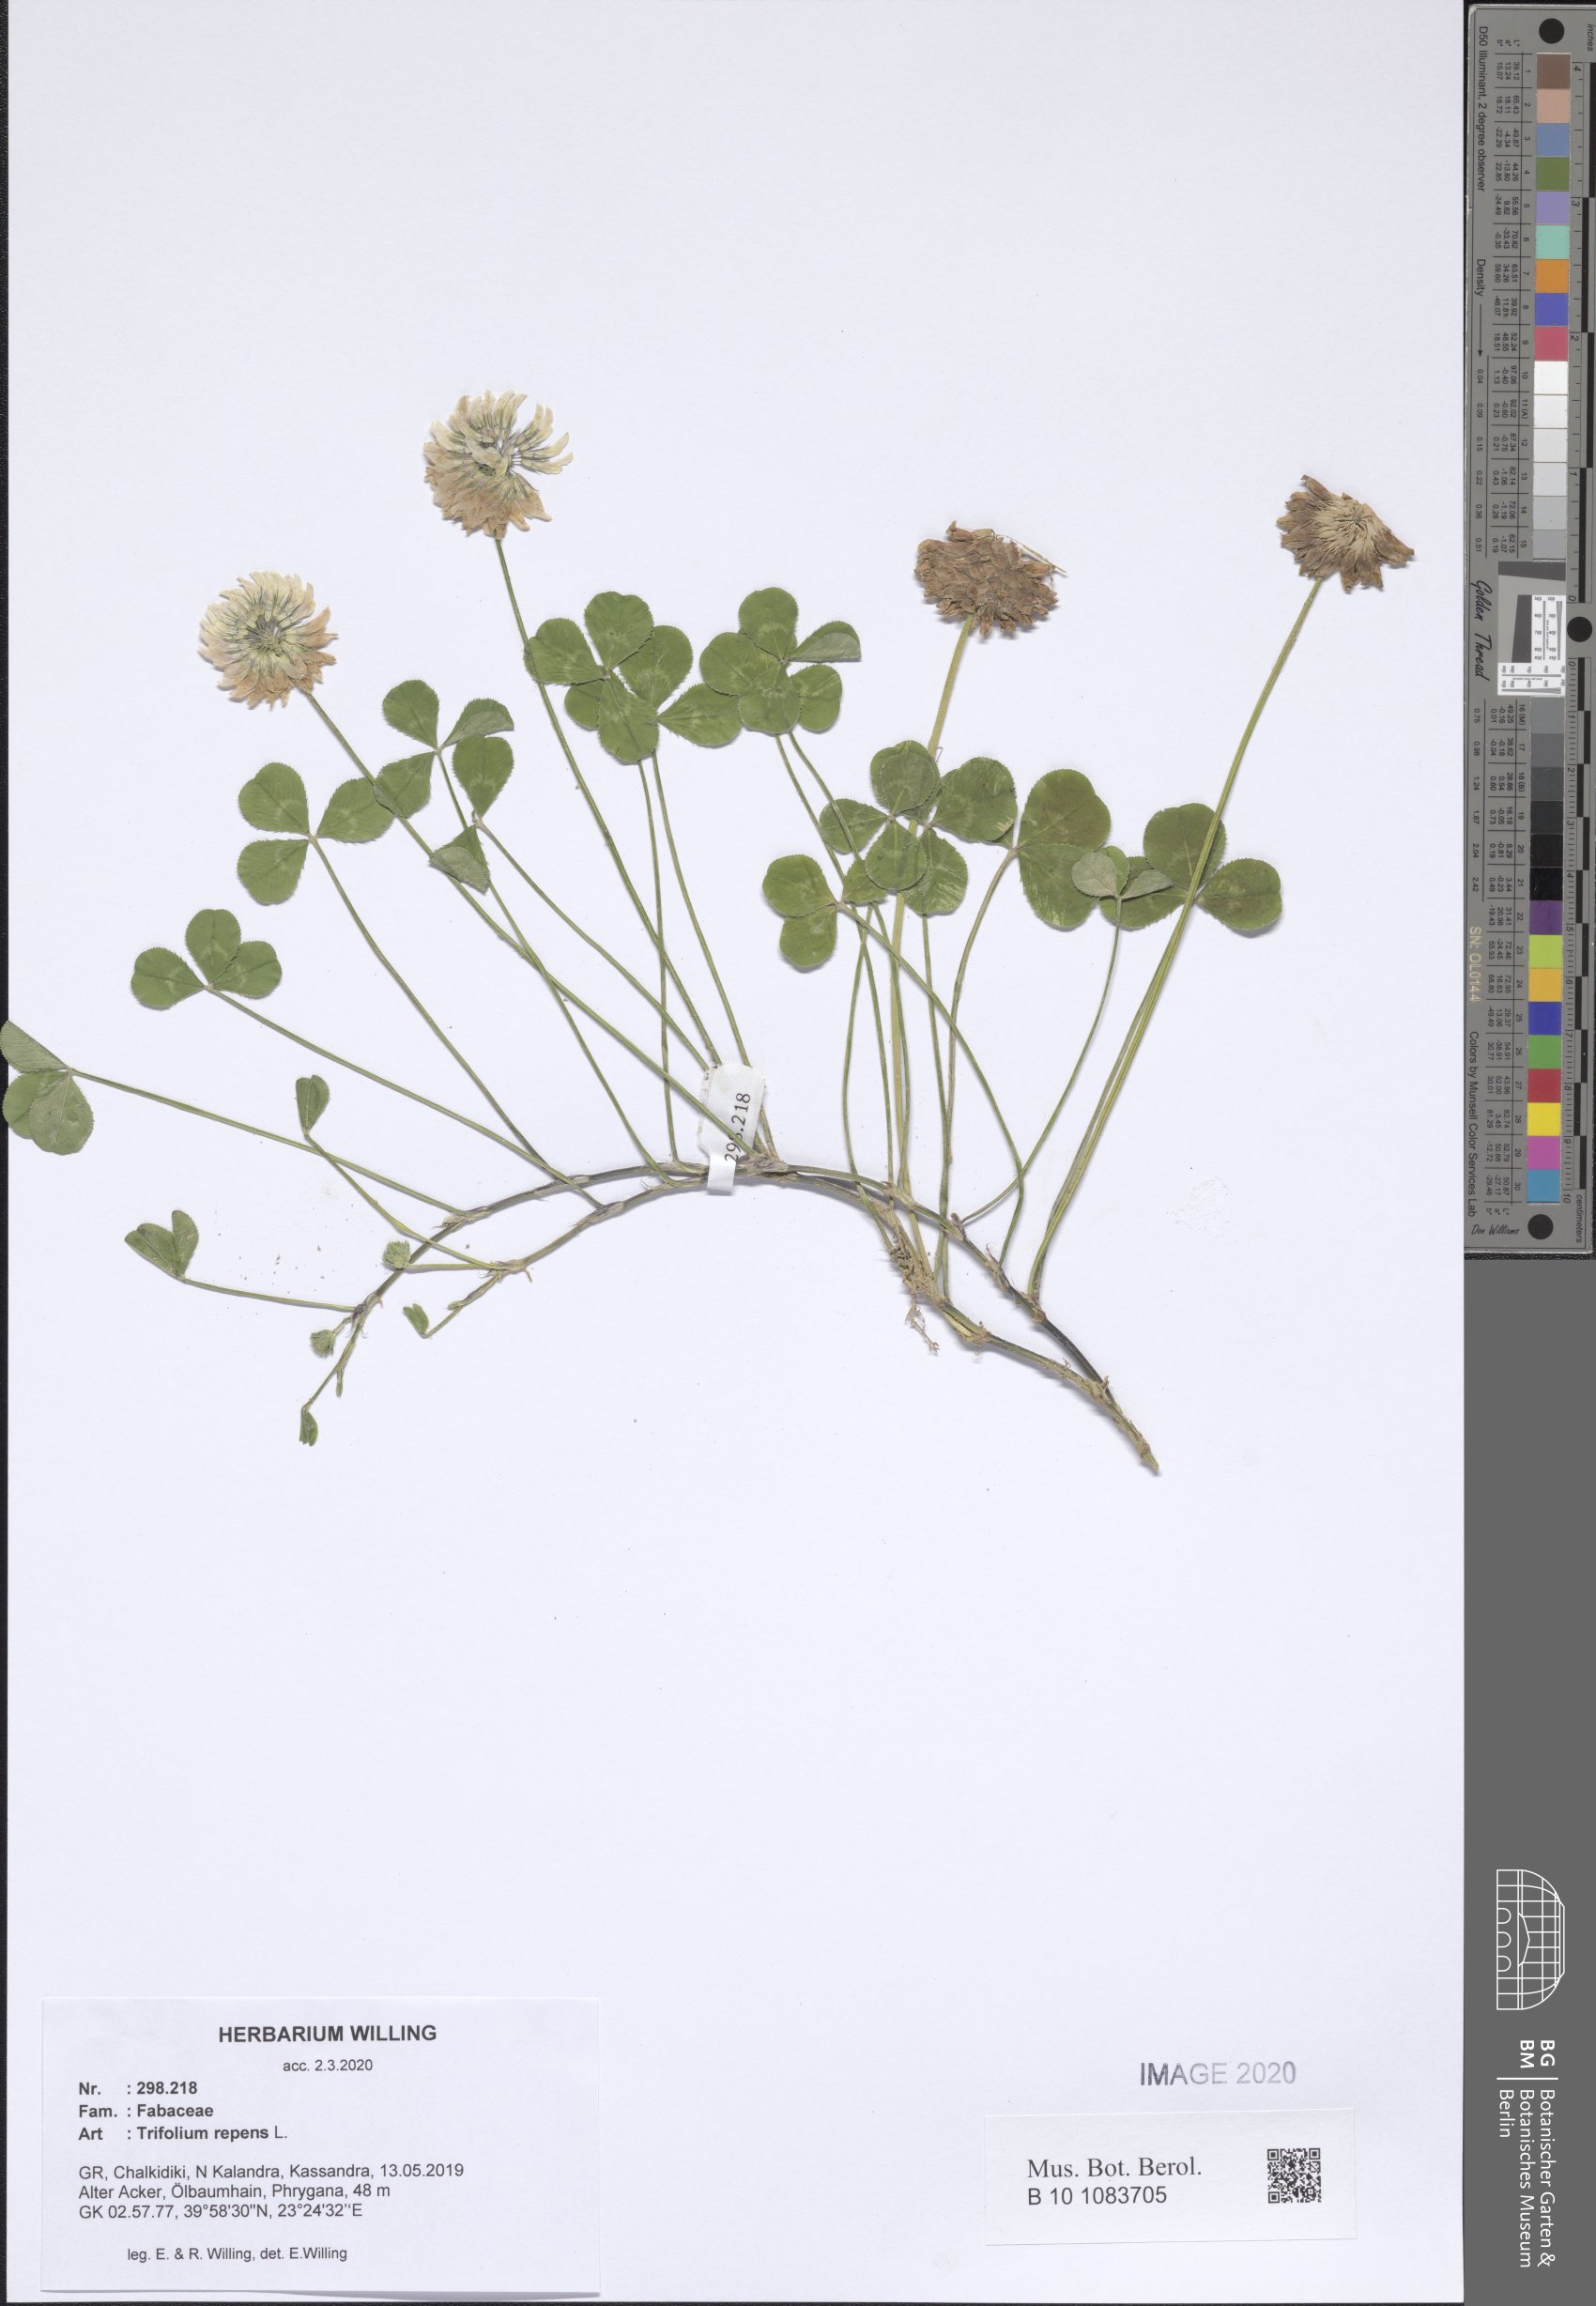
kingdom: Plantae
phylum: Tracheophyta
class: Magnoliopsida
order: Fabales
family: Fabaceae
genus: Trifolium
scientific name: Trifolium repens
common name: White clover
